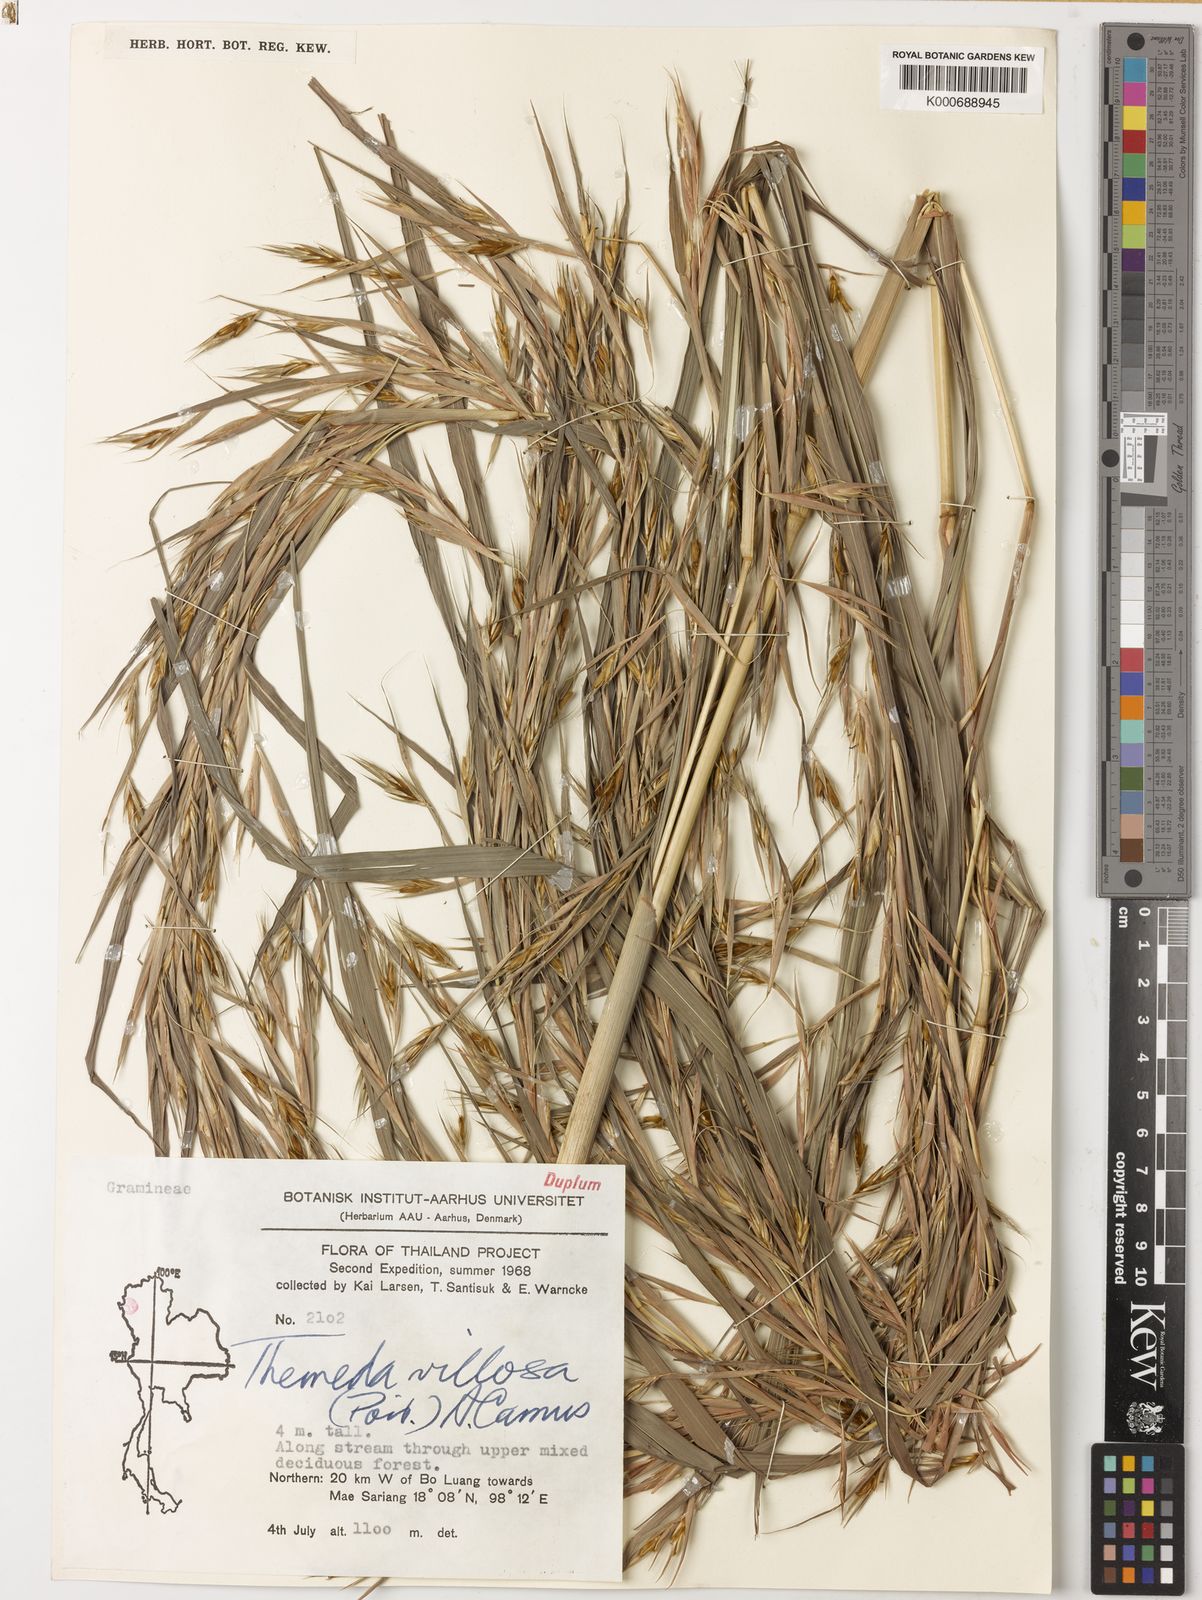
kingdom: Plantae
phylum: Tracheophyta
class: Liliopsida
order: Poales
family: Poaceae
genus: Themeda
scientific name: Themeda villosa
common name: Silky kangaroo grass
